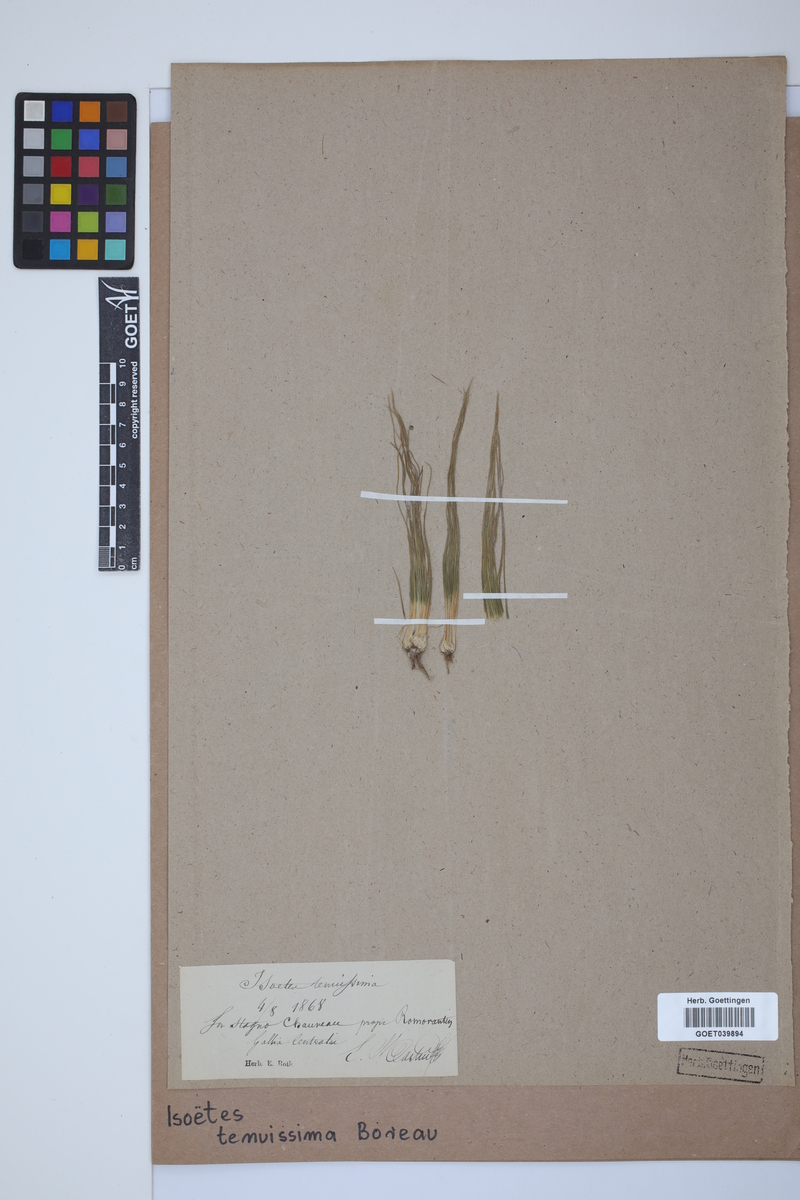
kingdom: Plantae
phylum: Tracheophyta
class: Lycopodiopsida
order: Isoetales
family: Isoetaceae
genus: Isoetes
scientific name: Isoetes muelleri
